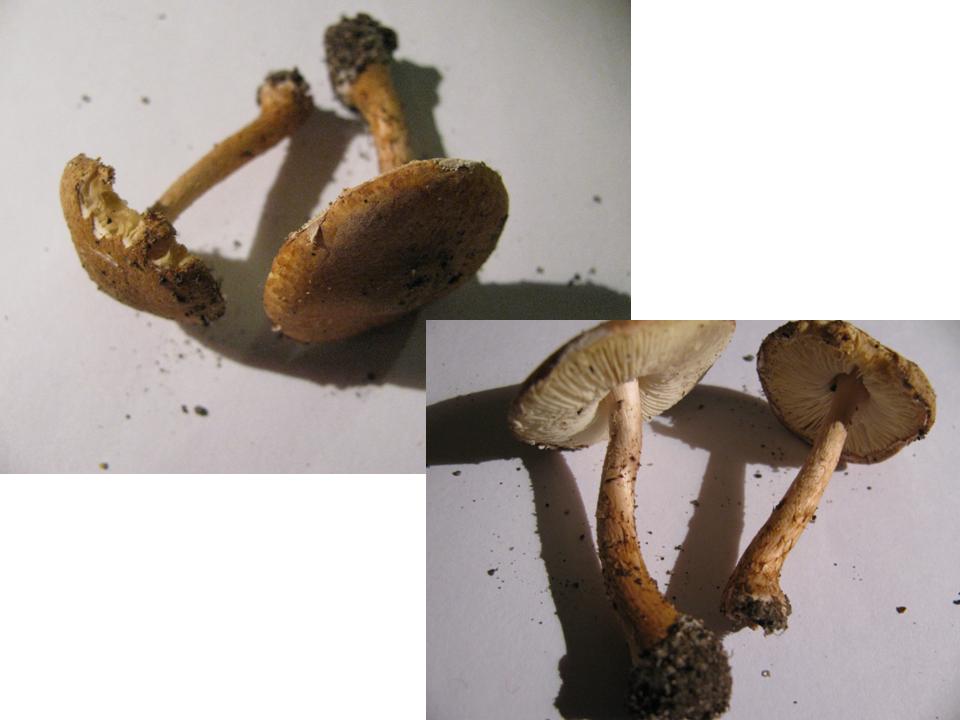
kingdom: Fungi
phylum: Basidiomycota
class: Agaricomycetes
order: Agaricales
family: Agaricaceae
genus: Leucocoprinus
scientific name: Leucocoprinus straminellus
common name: rustbrun parasolhat
